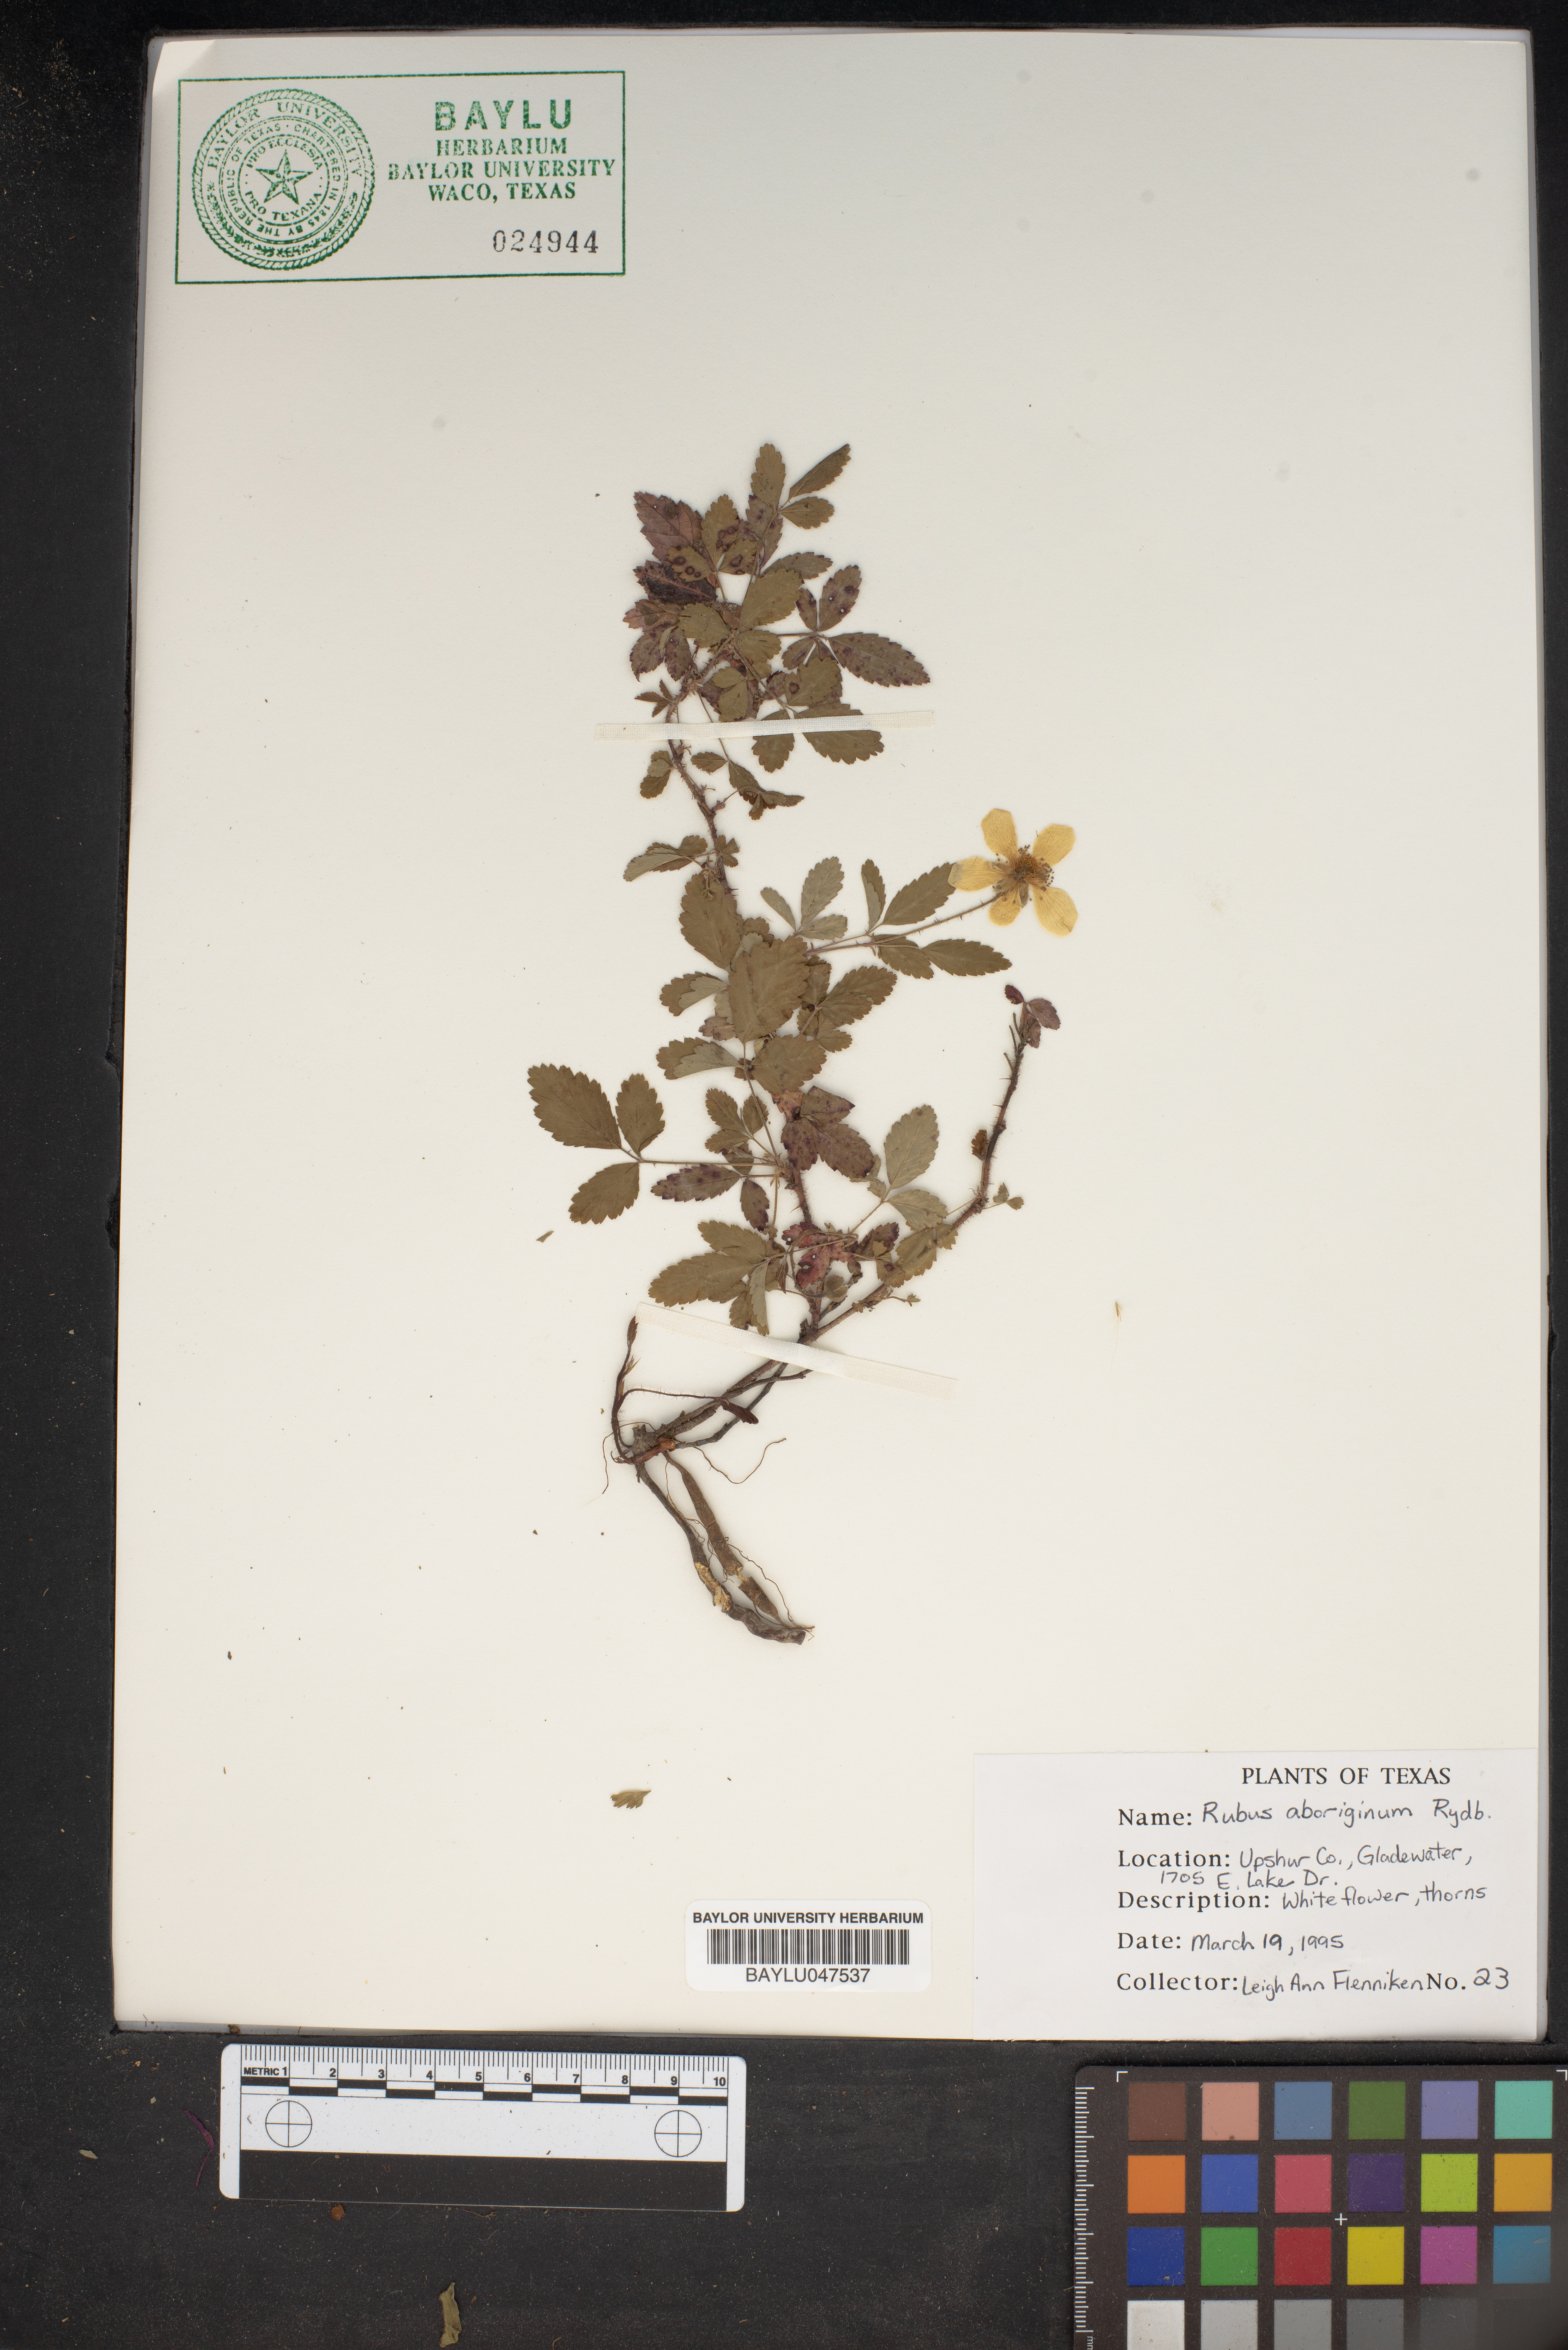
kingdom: Plantae
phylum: Tracheophyta
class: Magnoliopsida
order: Rosales
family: Rosaceae
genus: Rubus
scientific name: Rubus aboriginum
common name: Mayes dewberry
